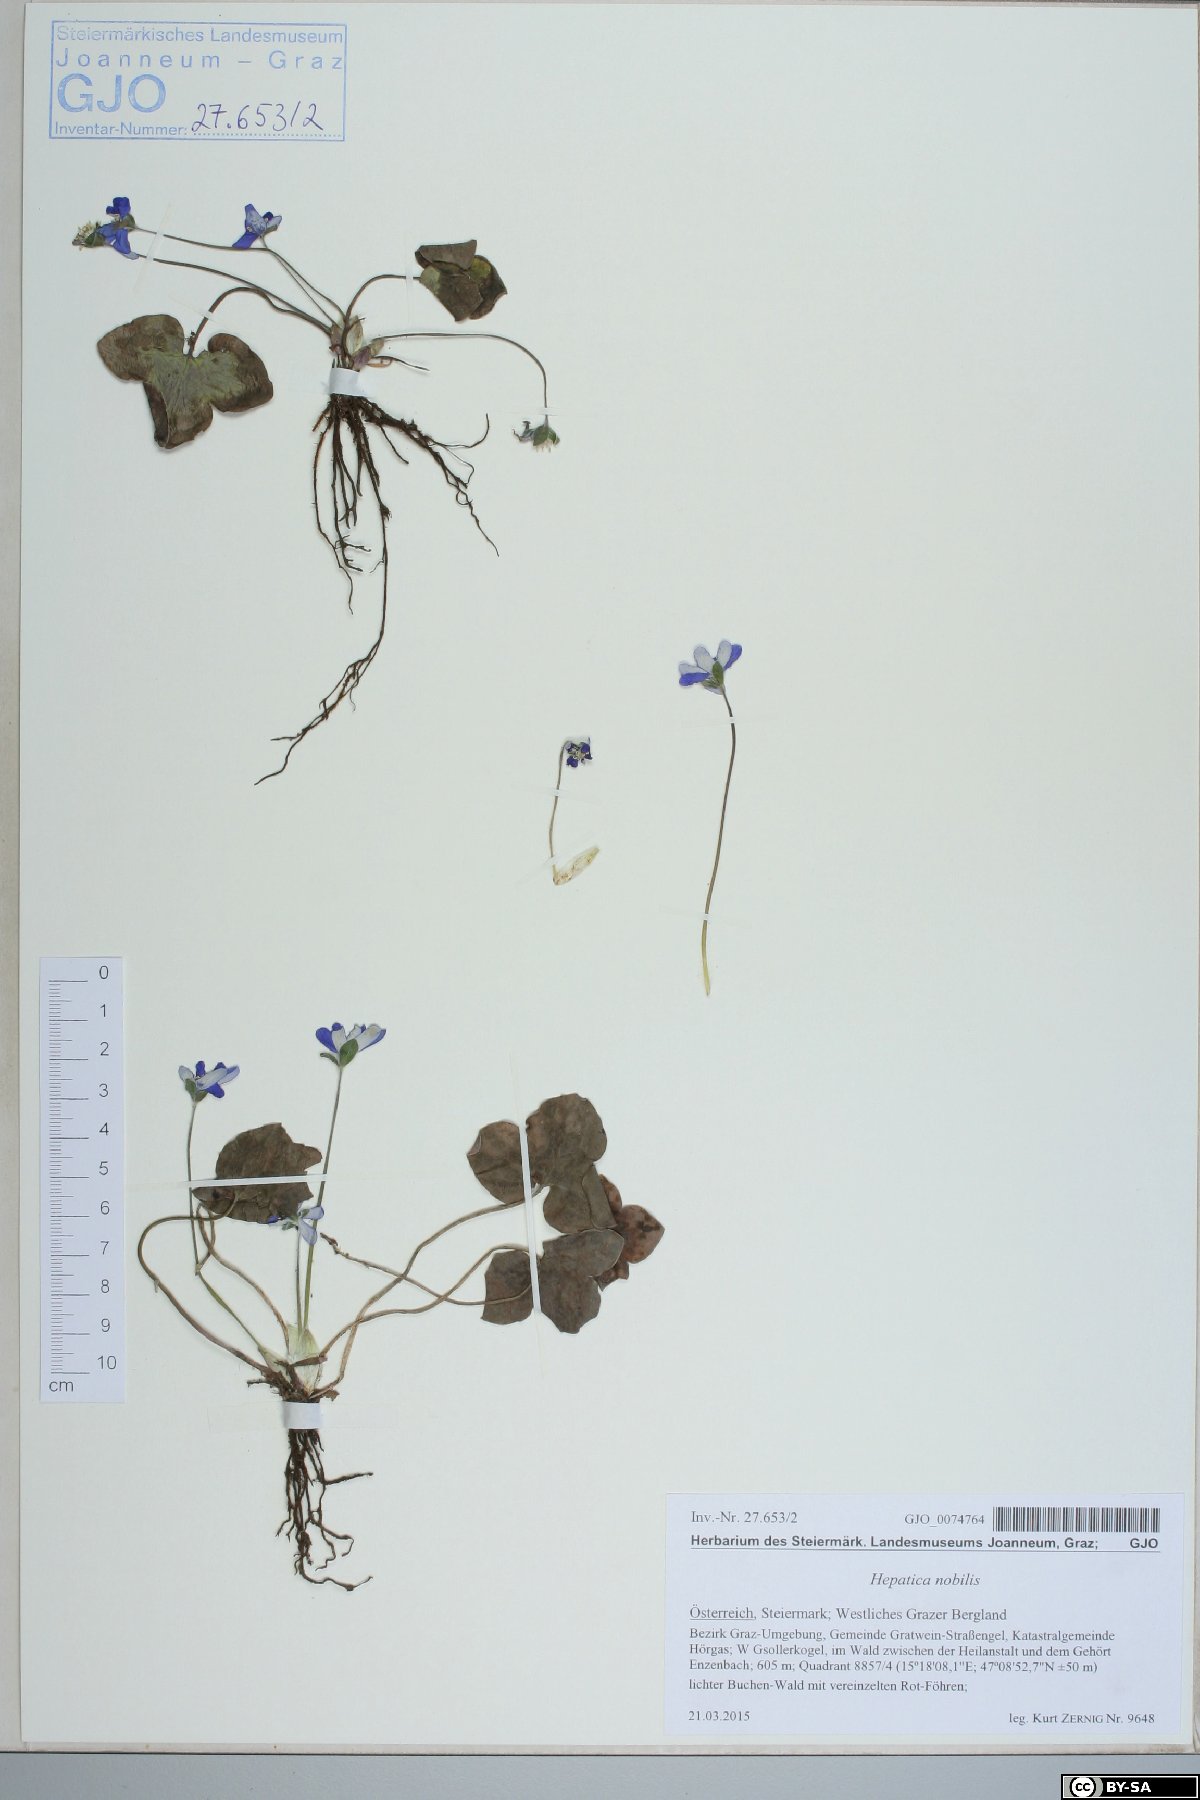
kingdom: Plantae
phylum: Tracheophyta
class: Magnoliopsida
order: Ranunculales
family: Ranunculaceae
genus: Hepatica
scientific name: Hepatica nobilis
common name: Liverleaf
